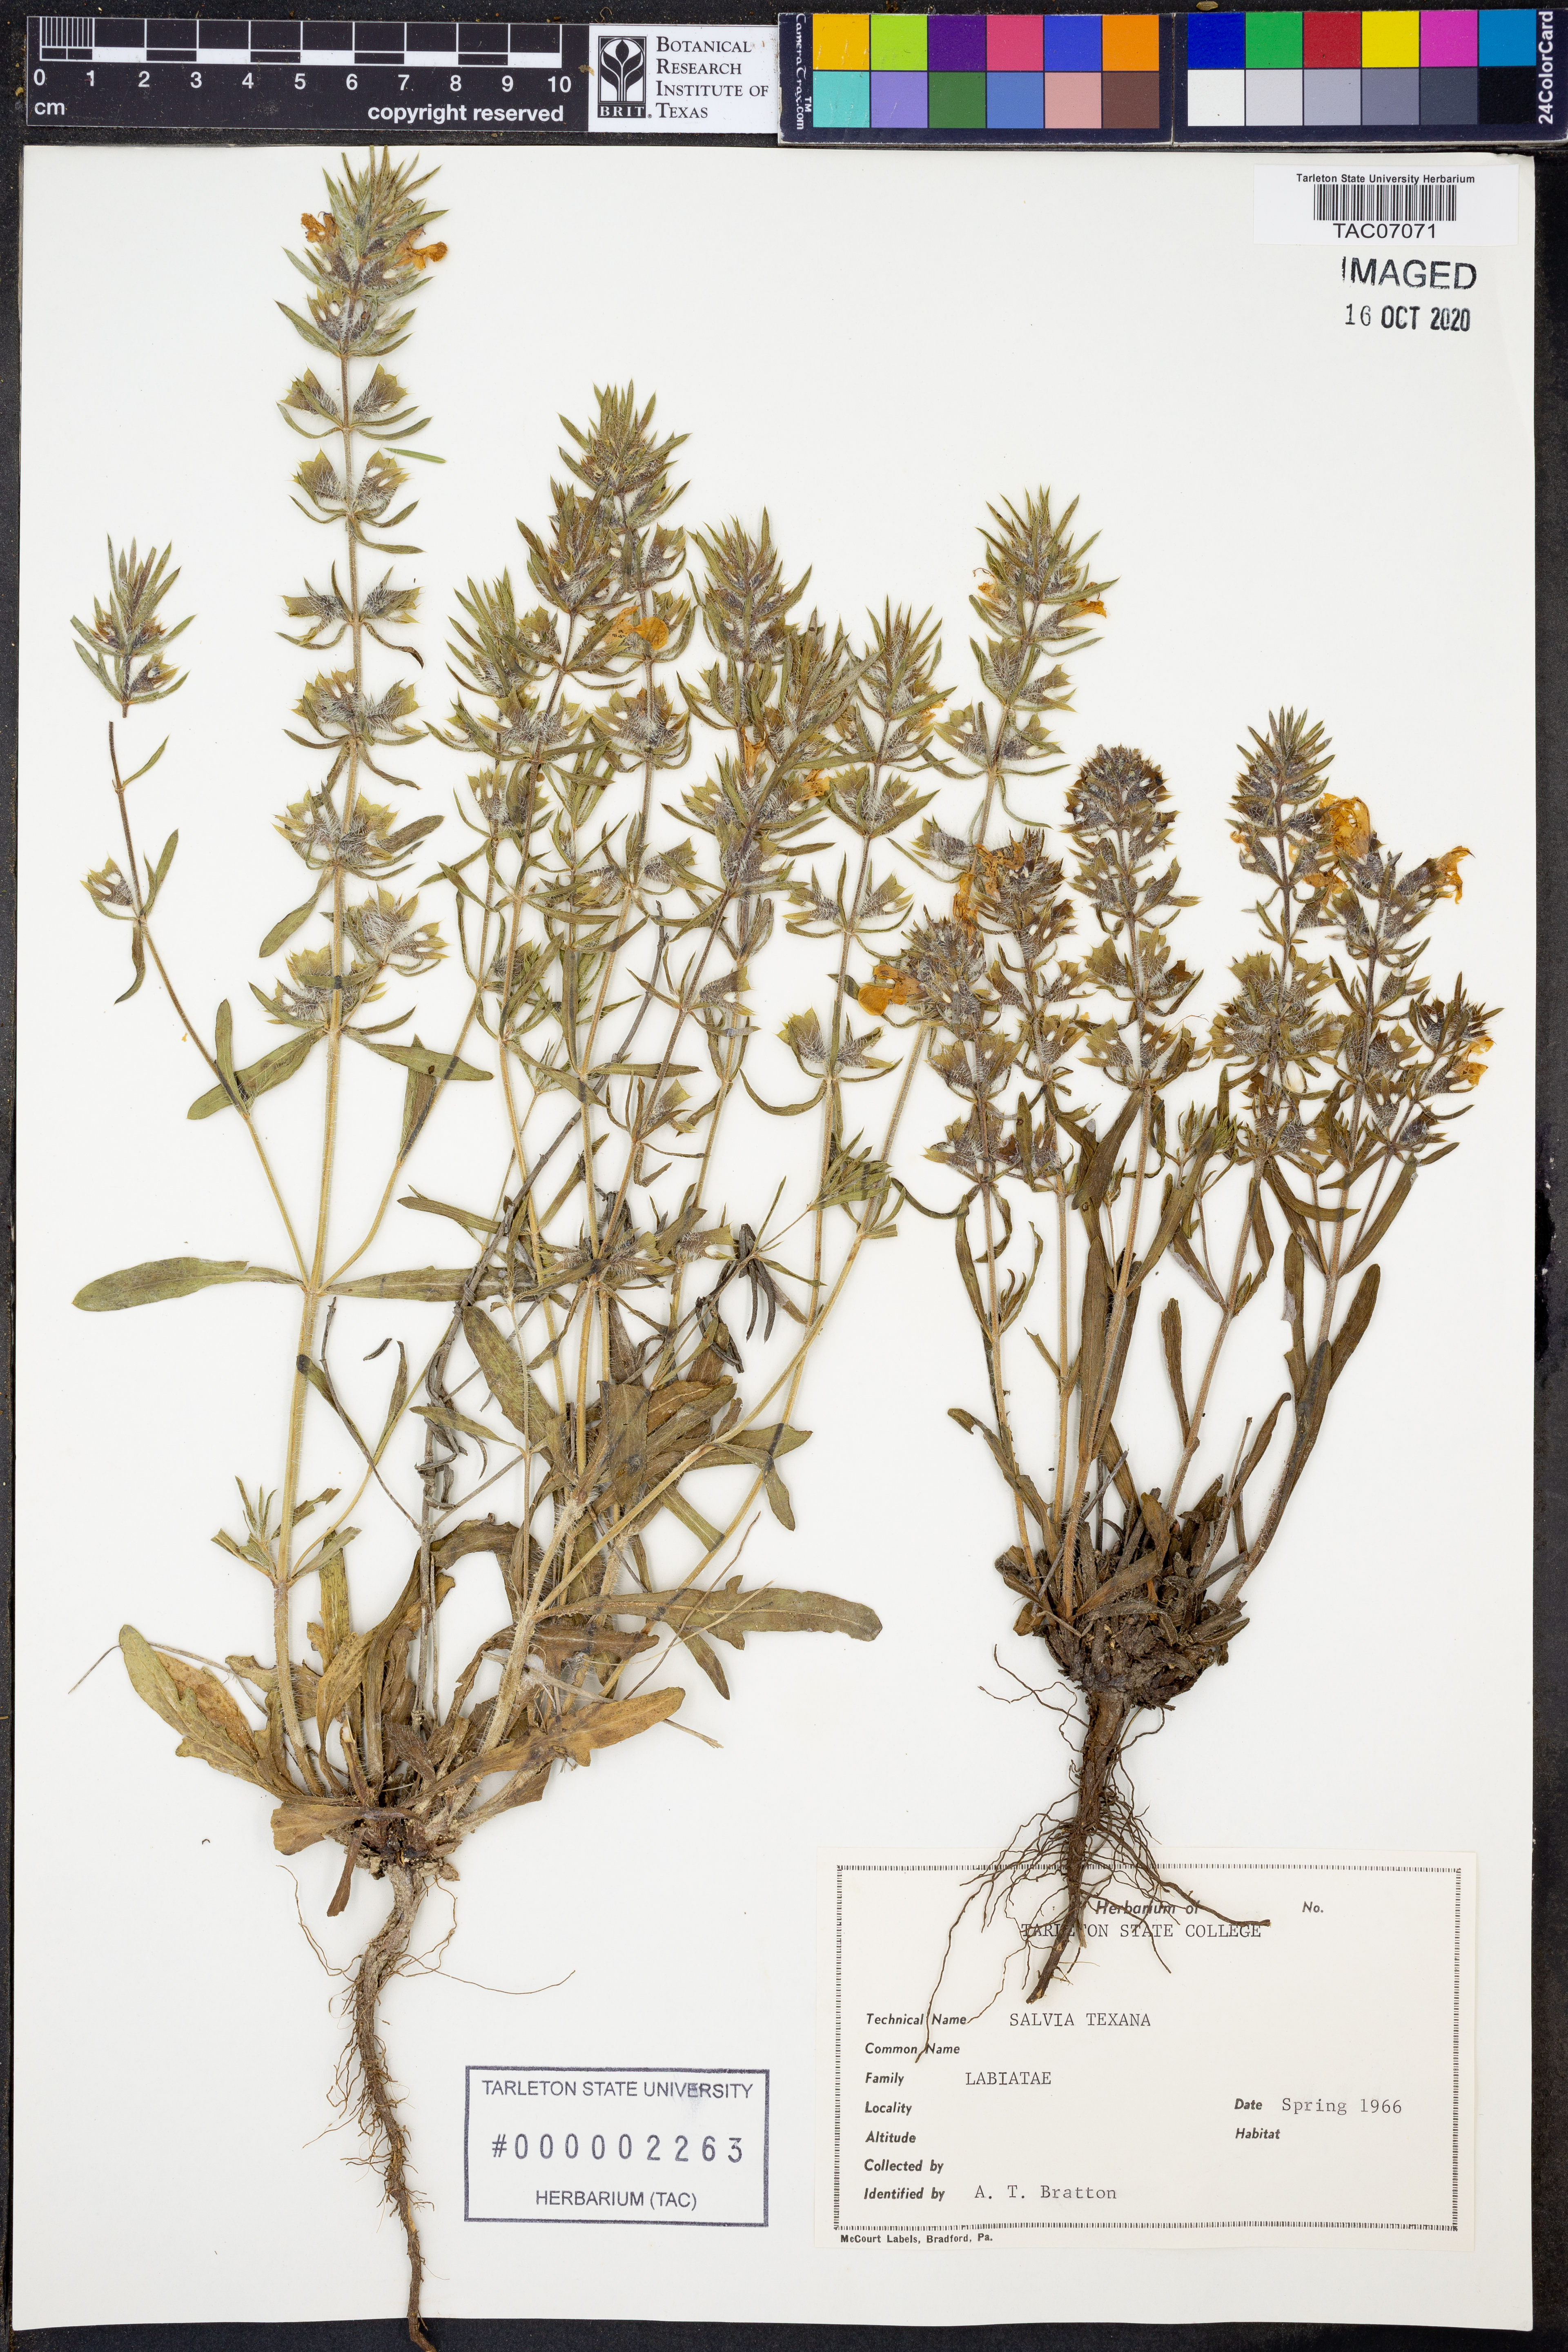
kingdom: Plantae
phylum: Tracheophyta
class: Magnoliopsida
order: Lamiales
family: Lamiaceae
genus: Salvia
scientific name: Salvia texana
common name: Texas sage
